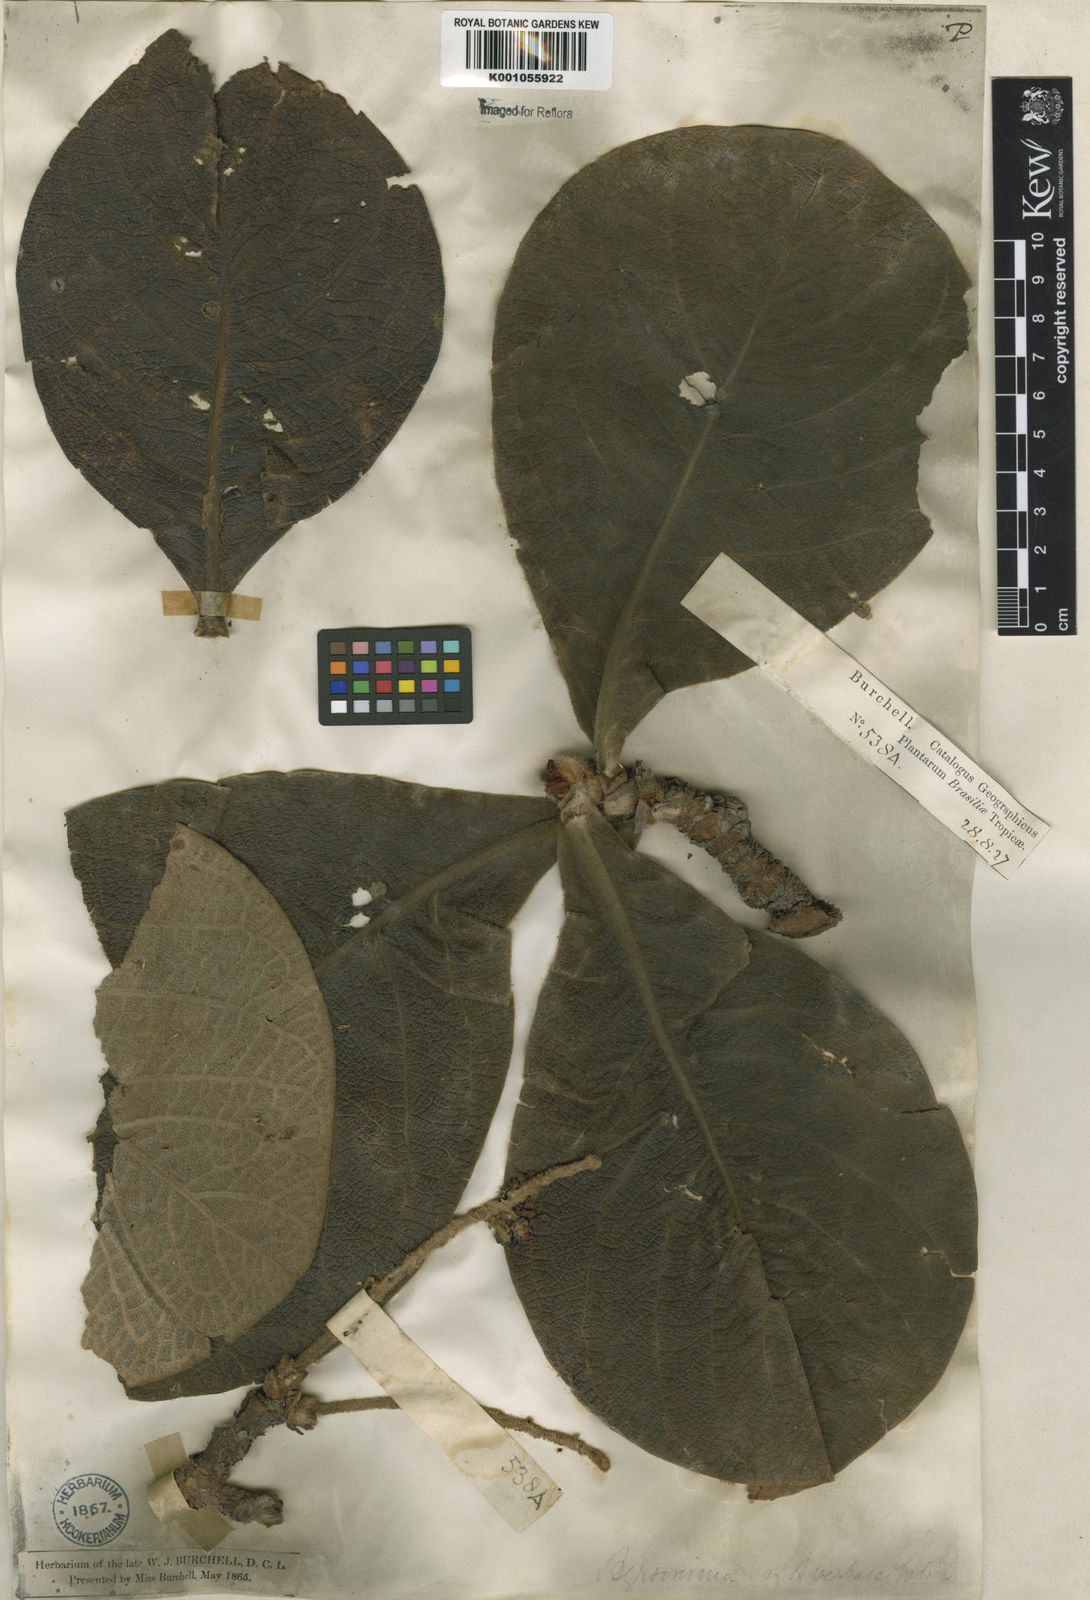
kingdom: Plantae
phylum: Tracheophyta
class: Magnoliopsida
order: Malpighiales
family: Malpighiaceae
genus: Byrsonima
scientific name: Byrsonima verbascifolia
